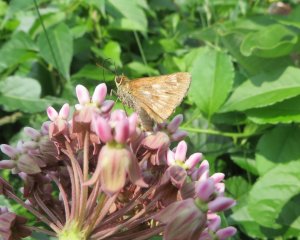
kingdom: Animalia
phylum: Arthropoda
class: Insecta
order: Lepidoptera
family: Hesperiidae
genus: Polites
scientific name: Polites
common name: Long Dash Skipper
